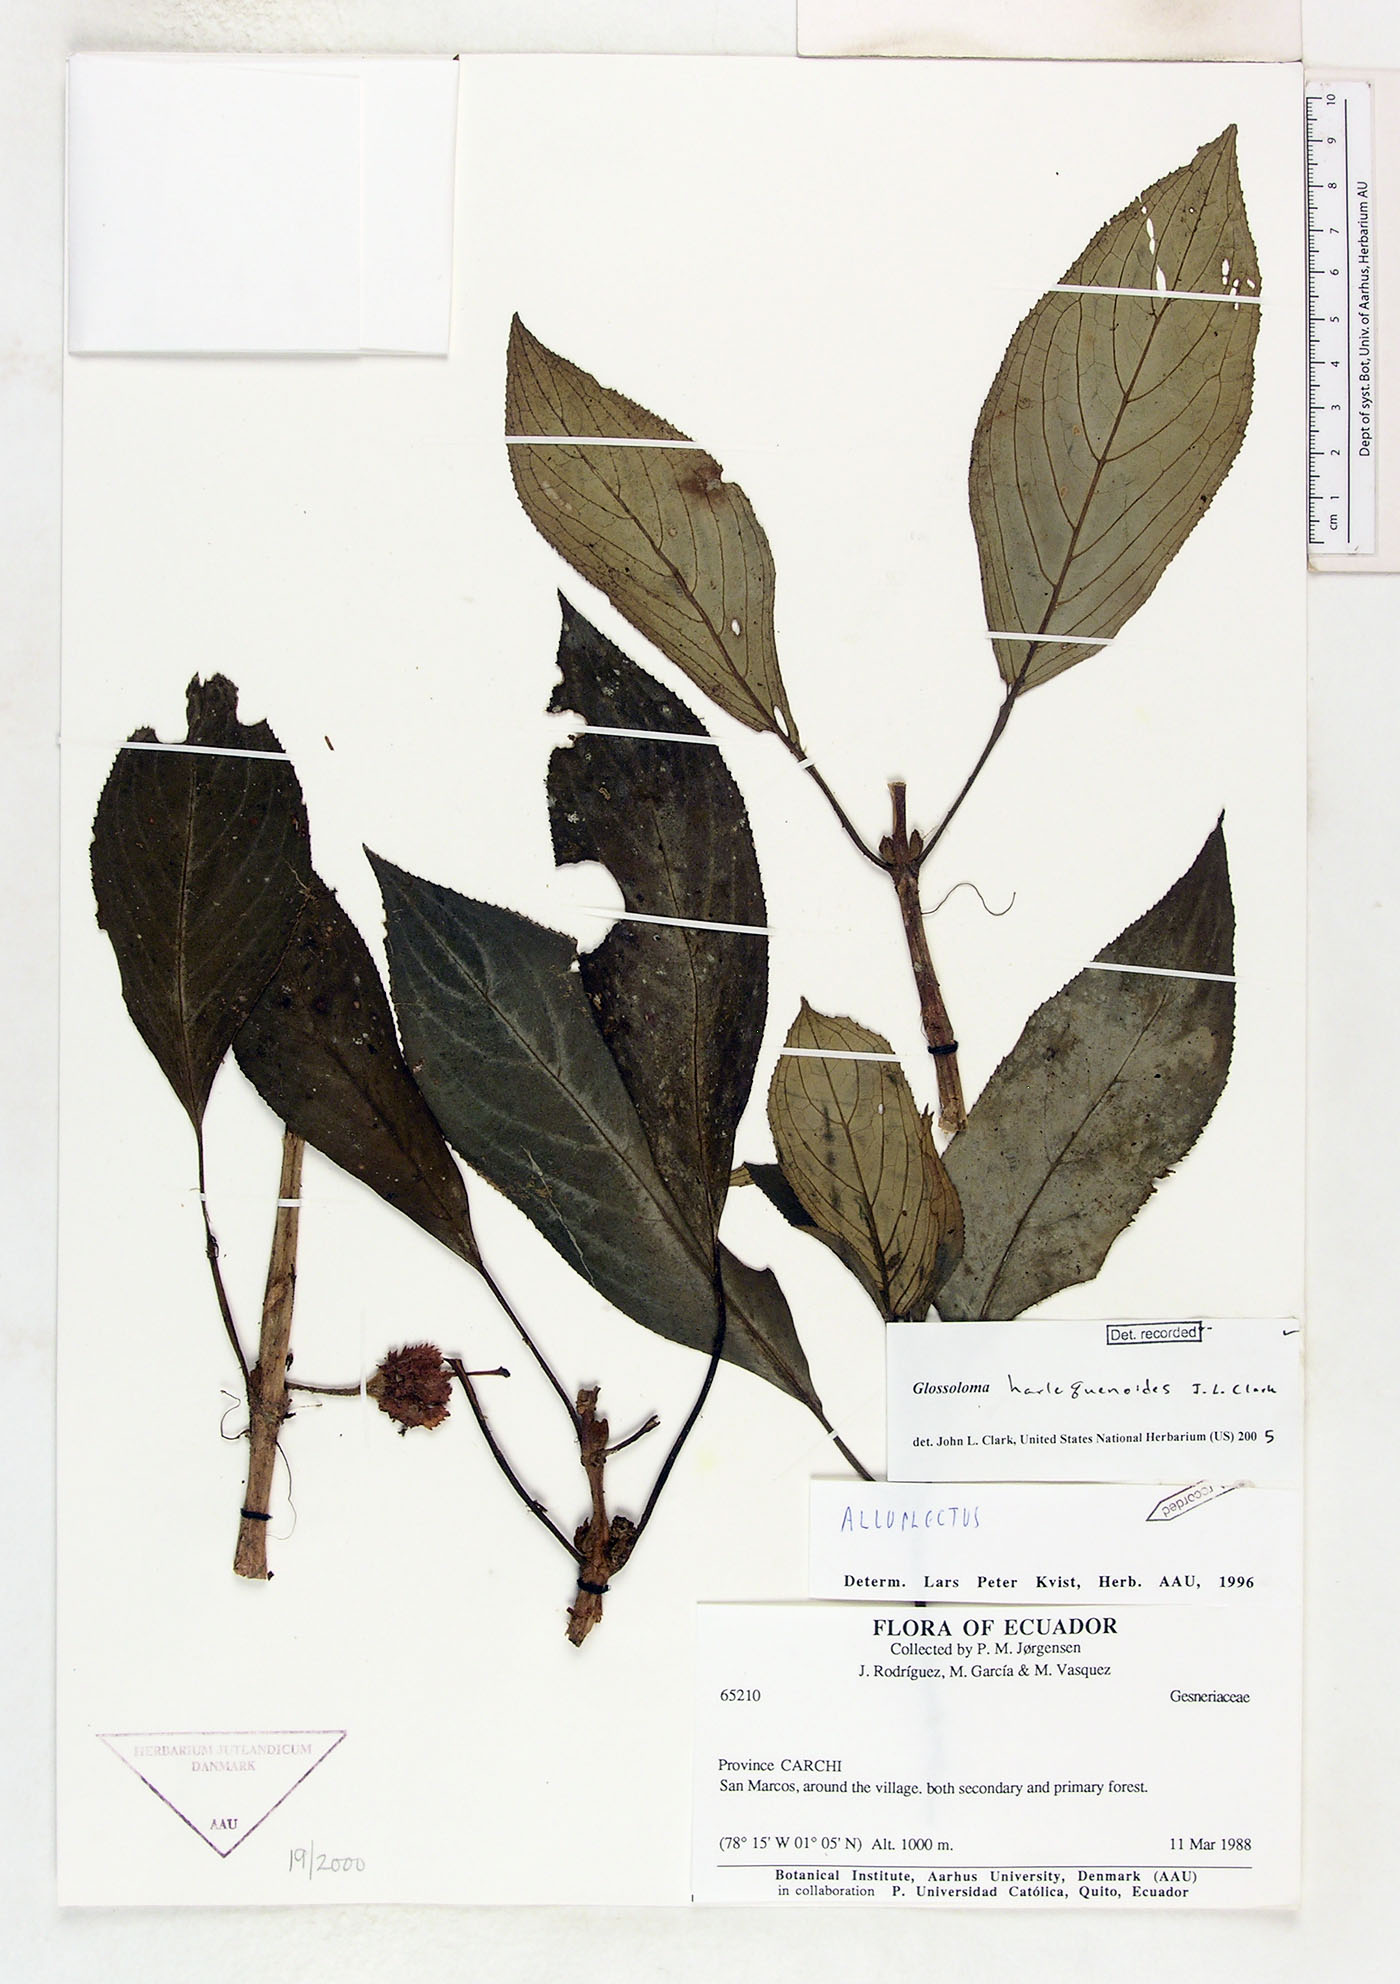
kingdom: Plantae
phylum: Tracheophyta
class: Magnoliopsida
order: Lamiales
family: Gesneriaceae
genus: Glossoloma
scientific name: Glossoloma harlequinoides
